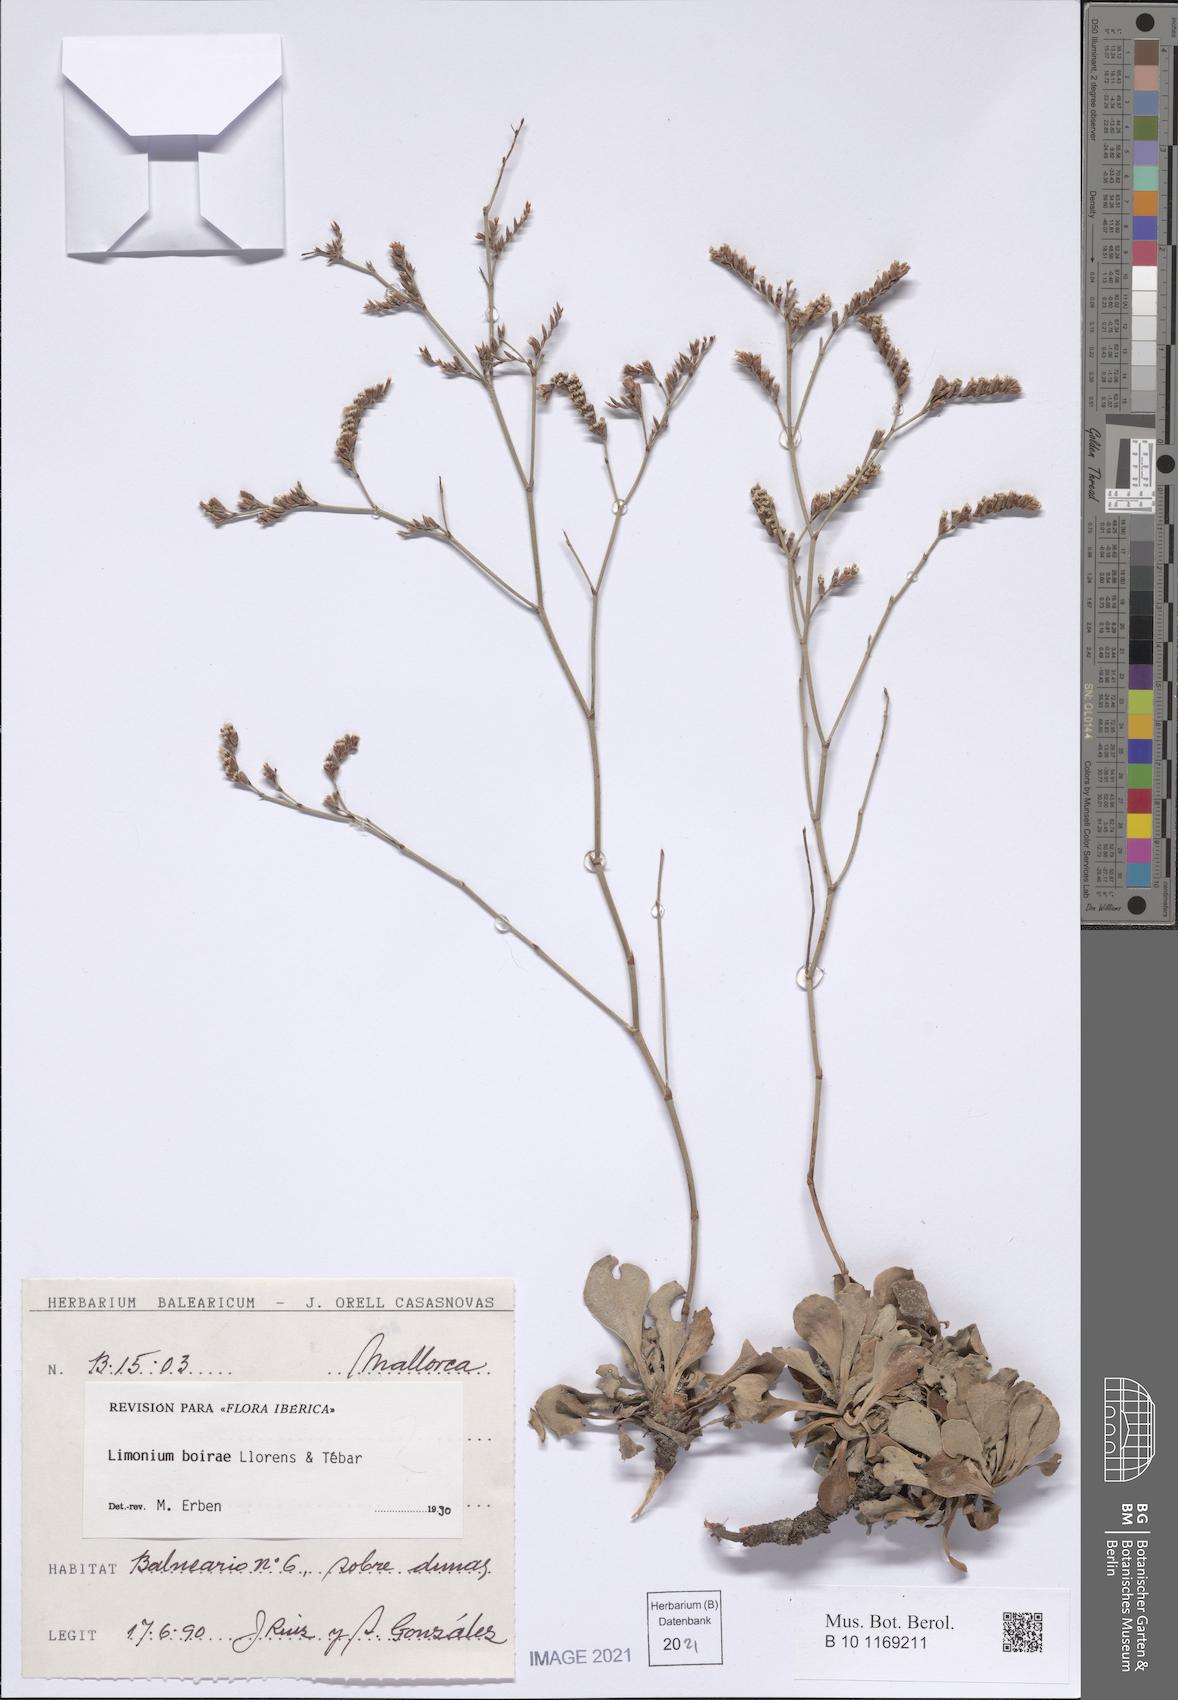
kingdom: Plantae
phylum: Tracheophyta
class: Magnoliopsida
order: Caryophyllales
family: Plumbaginaceae
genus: Limonium
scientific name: Limonium boirae
